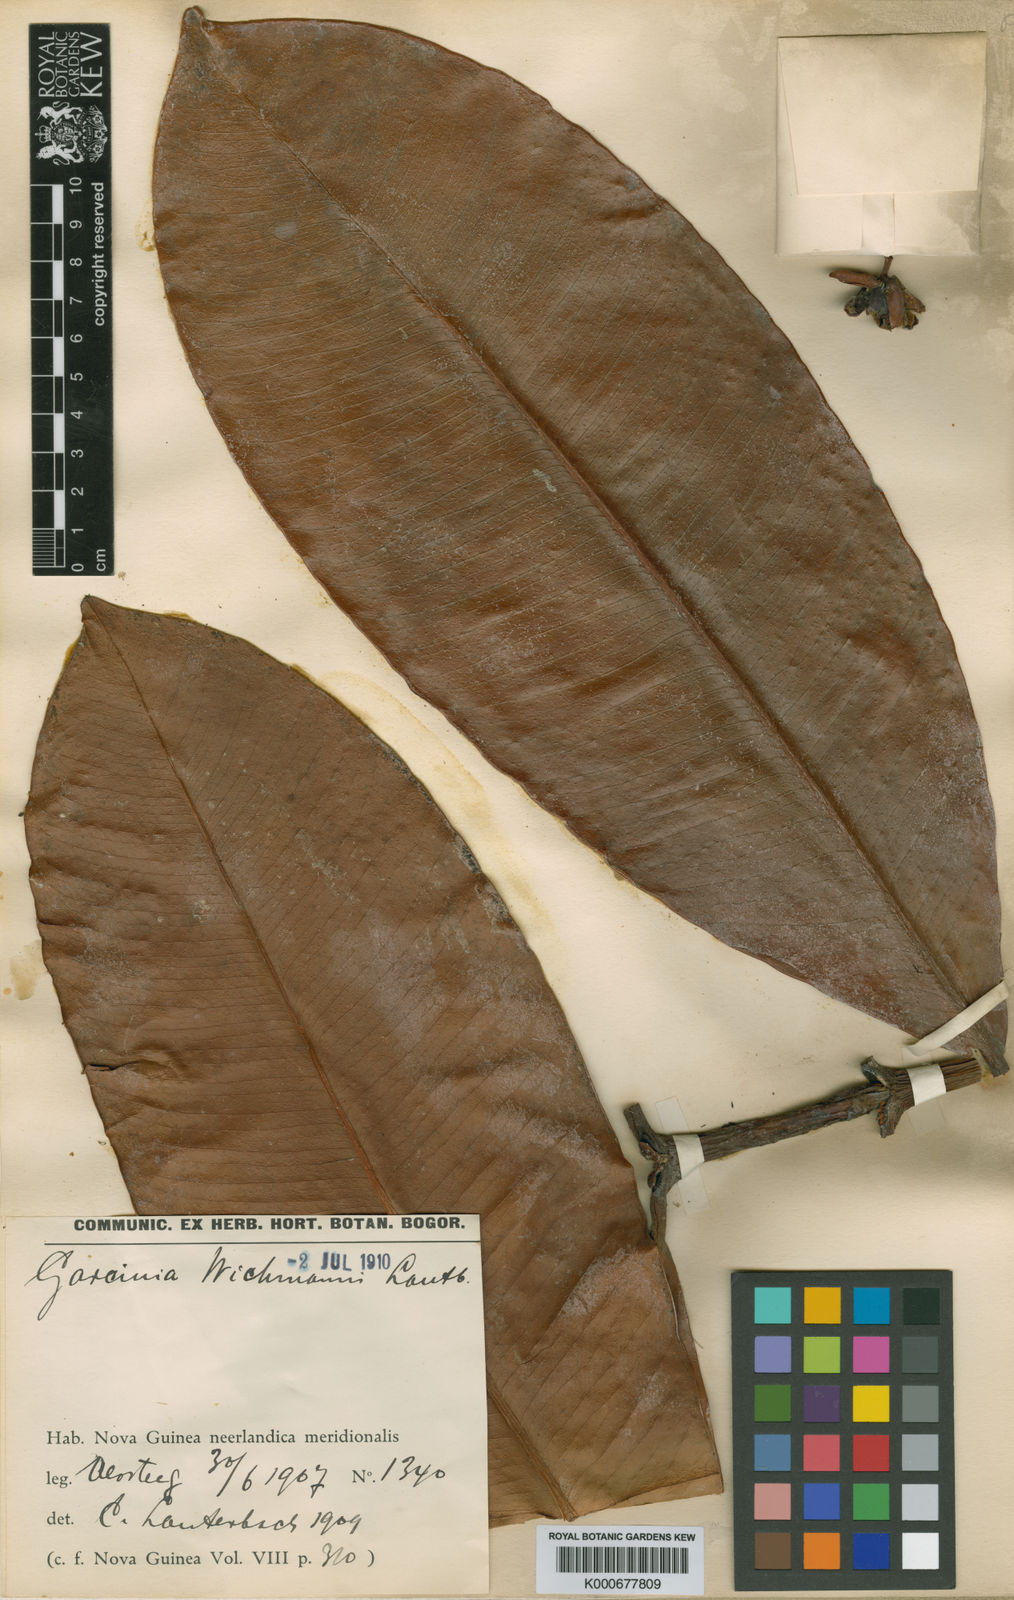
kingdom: Plantae
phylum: Tracheophyta
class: Magnoliopsida
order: Malpighiales
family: Clusiaceae
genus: Garcinia
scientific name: Garcinia wichmannii
